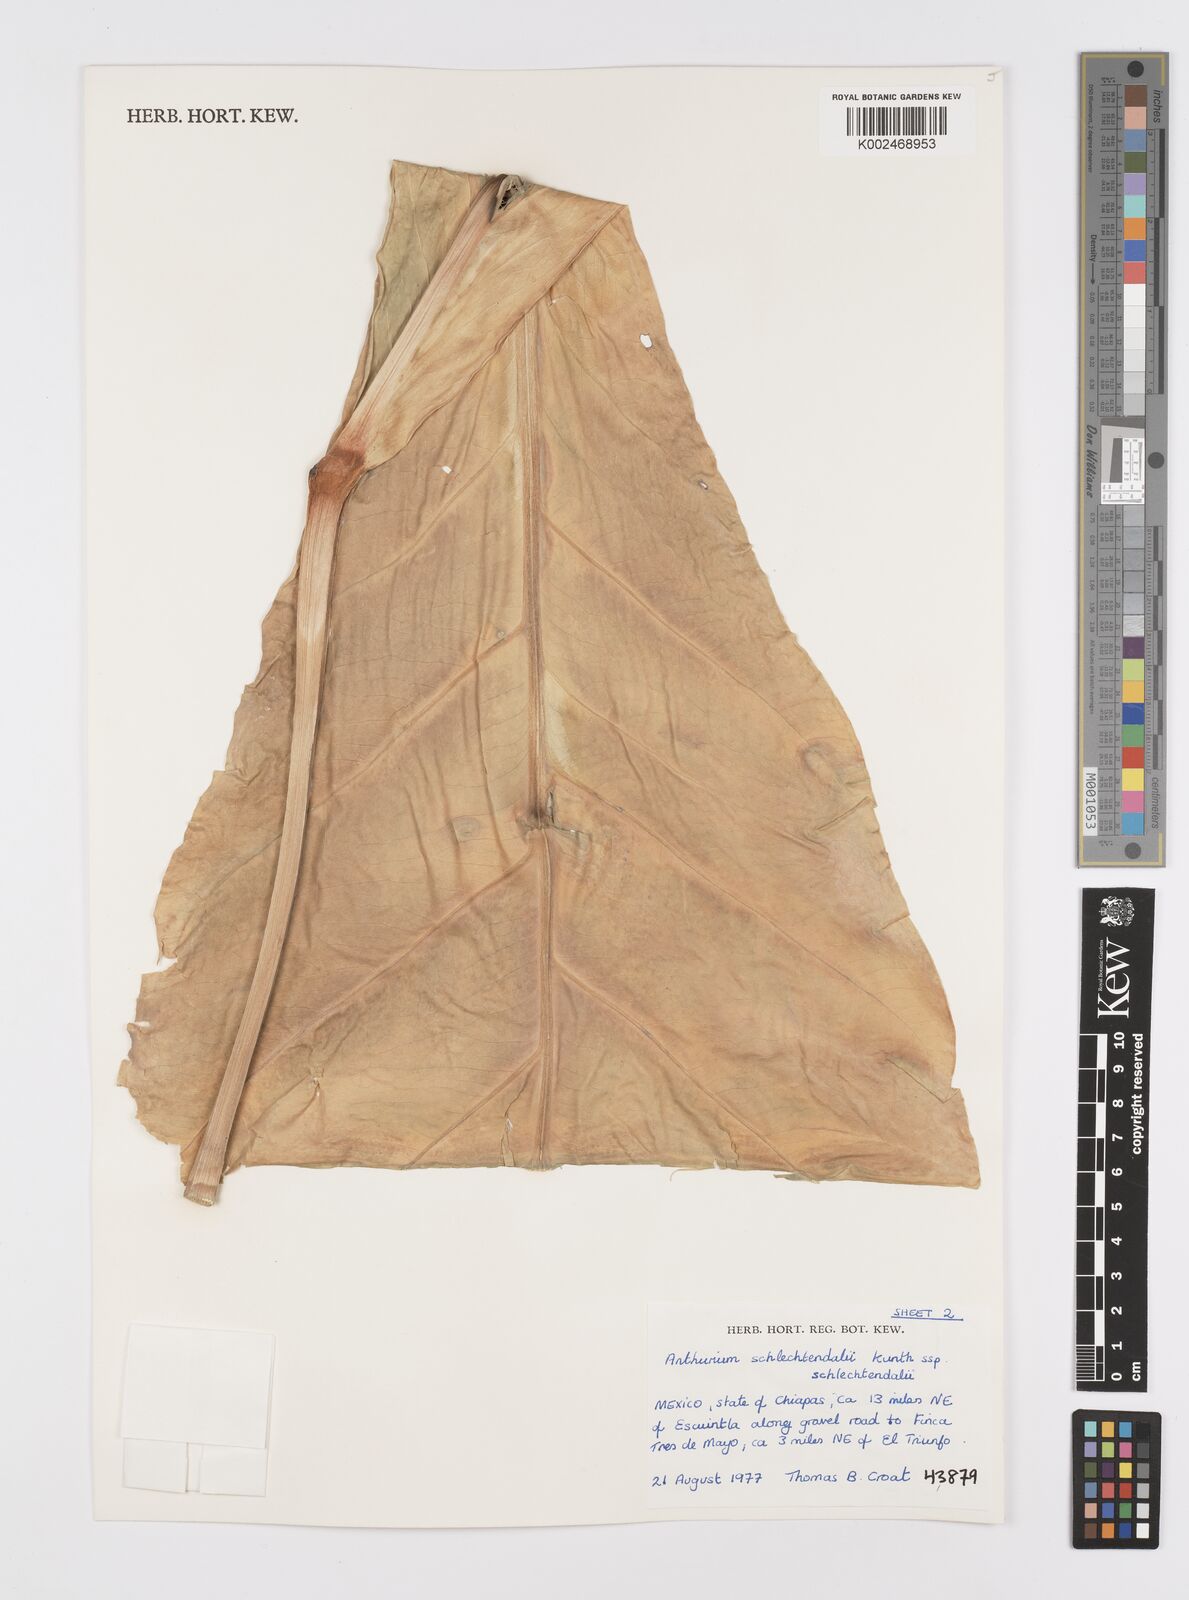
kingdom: Plantae
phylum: Tracheophyta
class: Liliopsida
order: Alismatales
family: Araceae
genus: Anthurium
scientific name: Anthurium schlechtendalii
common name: Laceleaf
